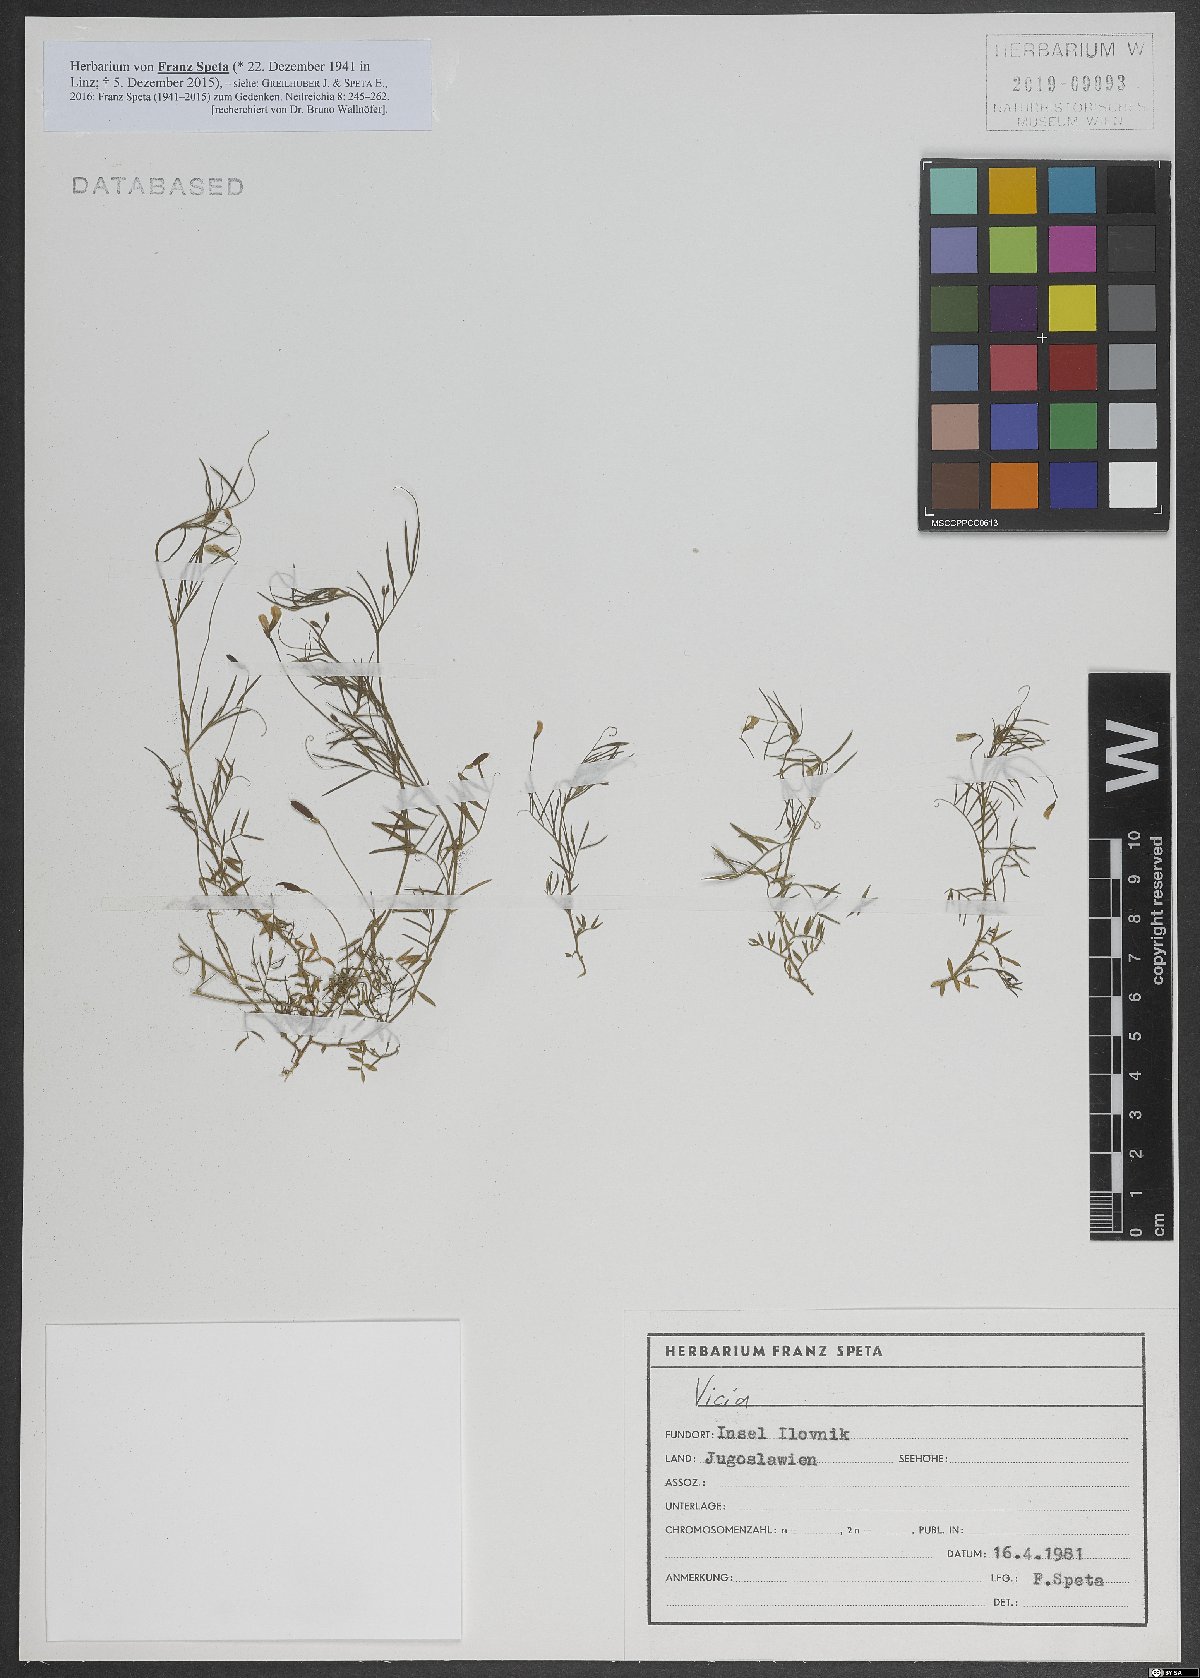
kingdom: Plantae
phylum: Tracheophyta
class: Magnoliopsida
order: Fabales
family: Fabaceae
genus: Vicia
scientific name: Vicia
